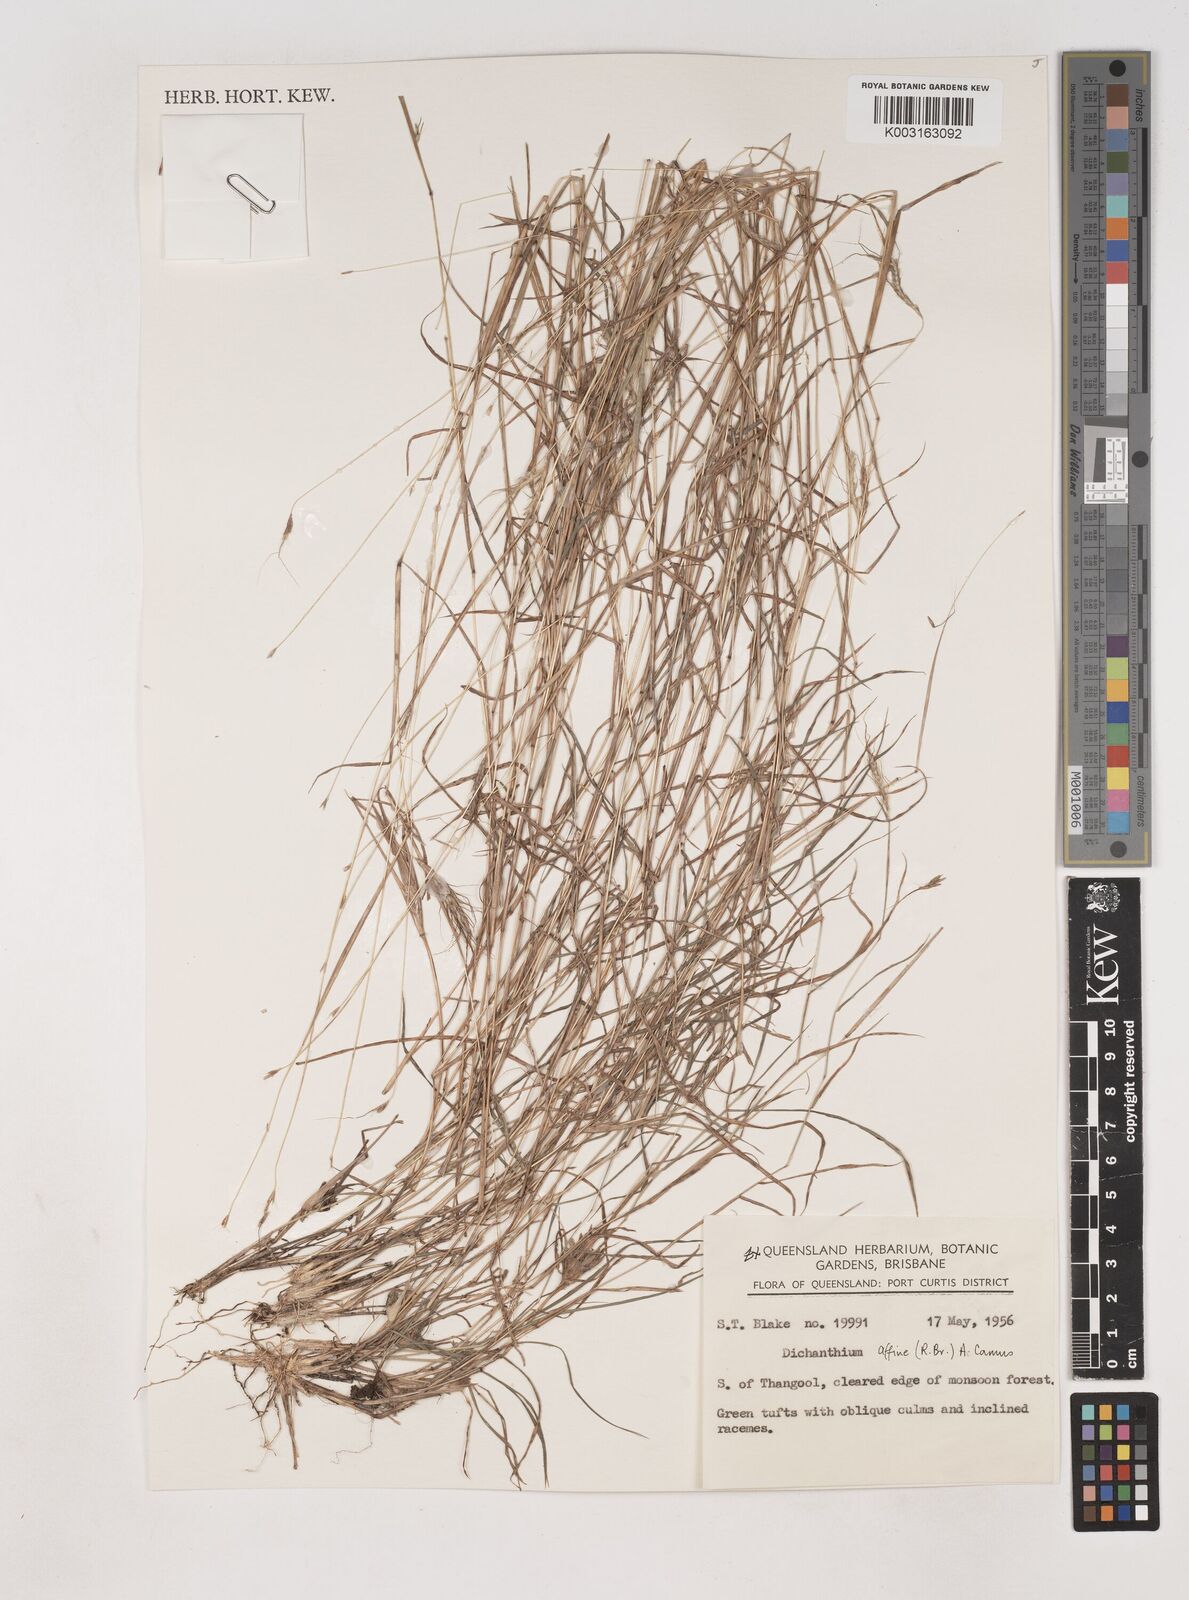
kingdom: Plantae
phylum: Tracheophyta
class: Liliopsida
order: Poales
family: Poaceae
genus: Dichanthium
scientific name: Dichanthium sericeum
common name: Silky bluestem
